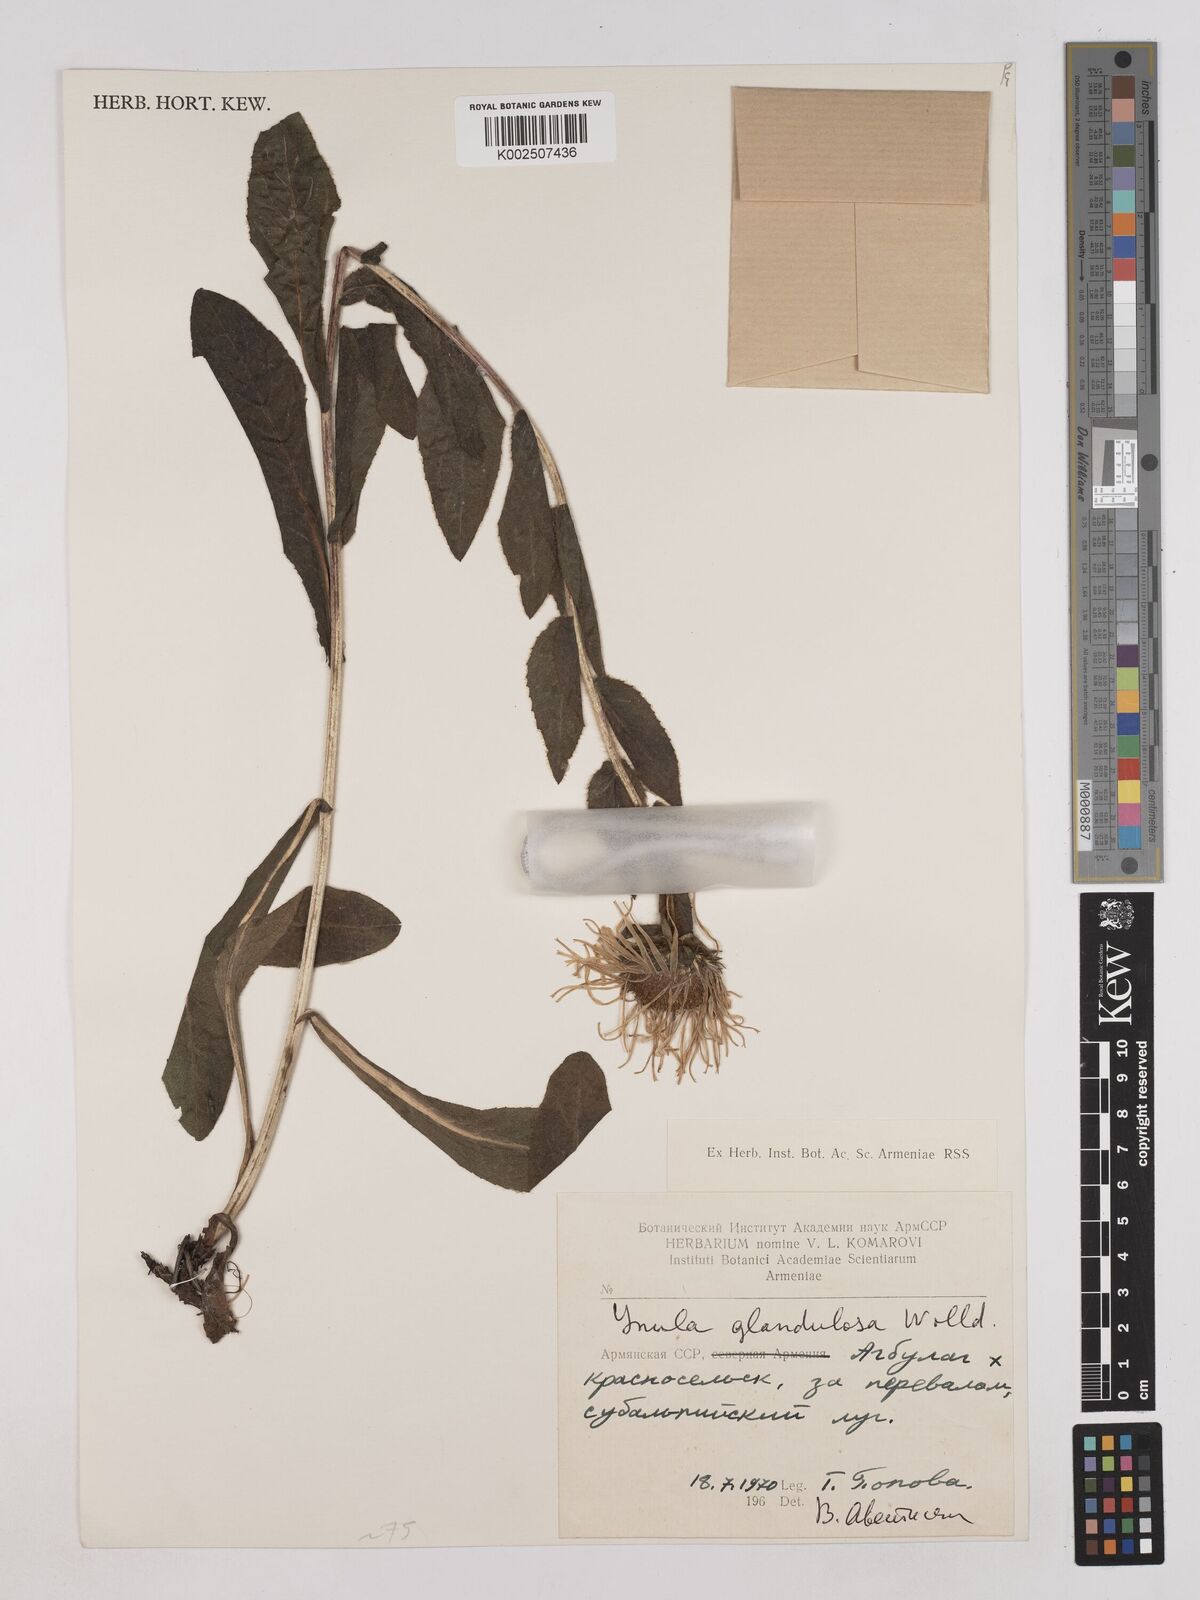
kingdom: Plantae
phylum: Tracheophyta
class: Magnoliopsida
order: Asterales
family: Asteraceae
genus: Pentanema
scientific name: Pentanema orientale
